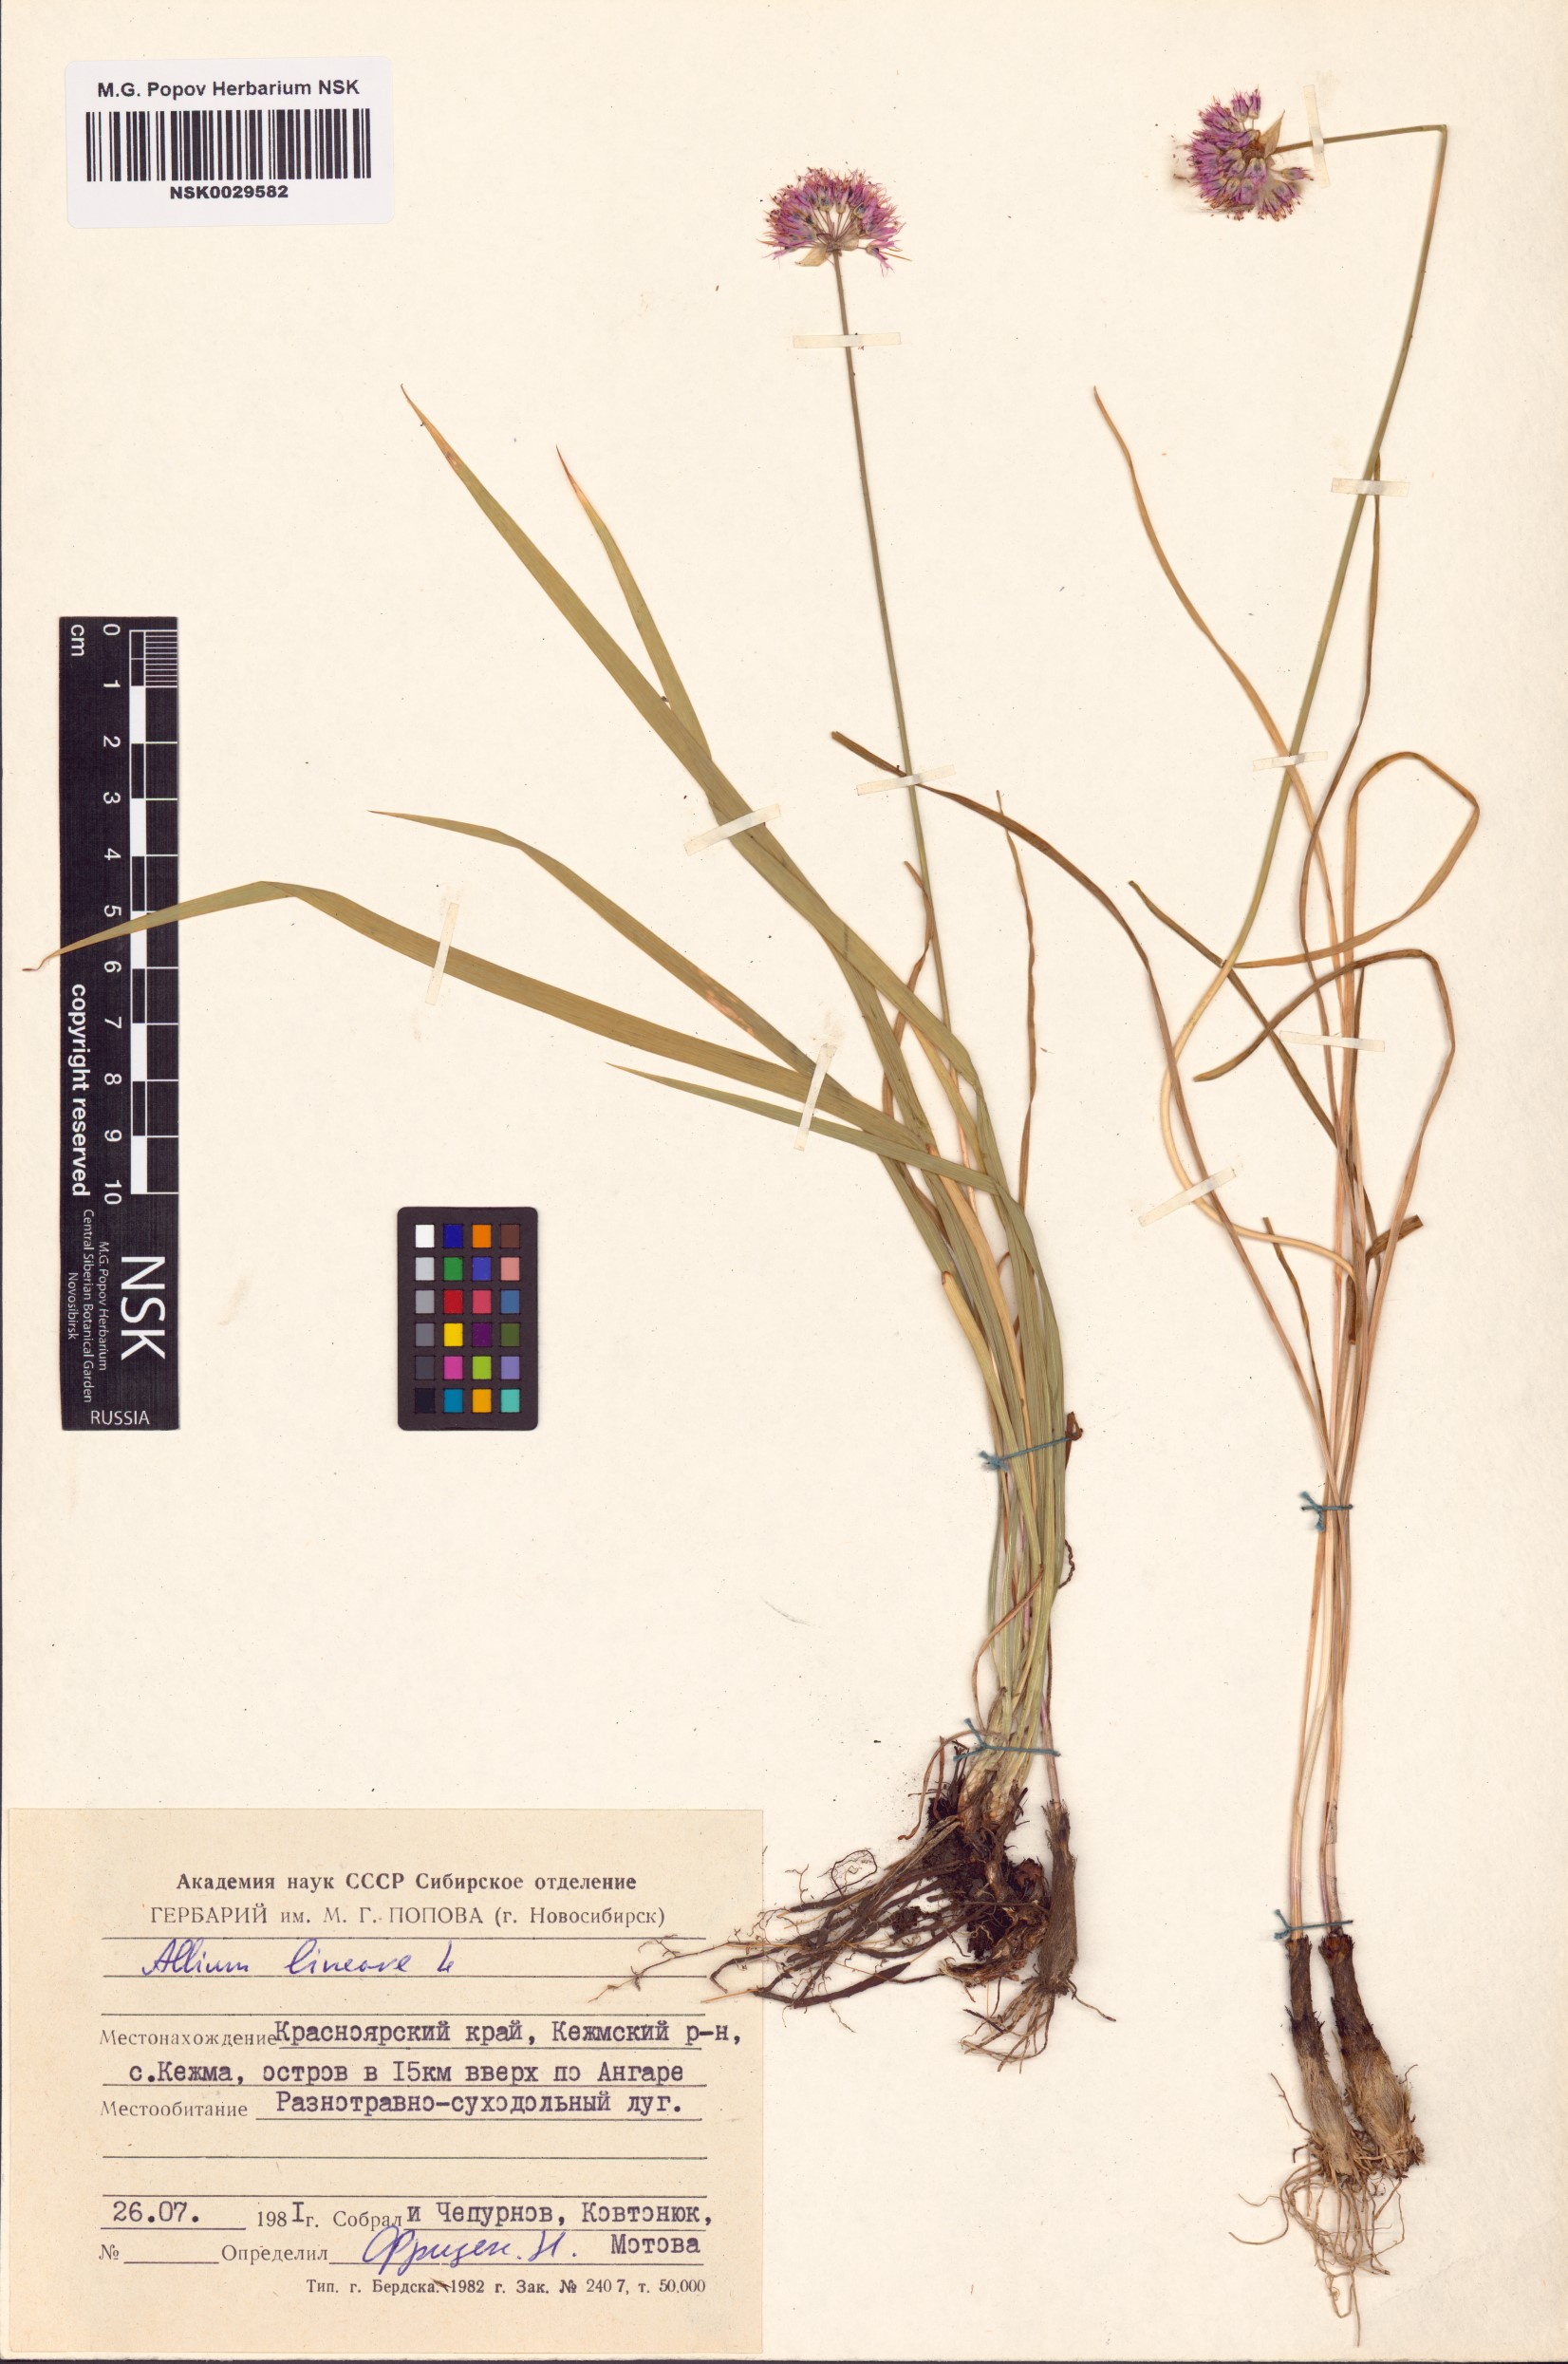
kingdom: Plantae
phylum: Tracheophyta
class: Liliopsida
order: Asparagales
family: Amaryllidaceae
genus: Allium
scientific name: Allium lineare
